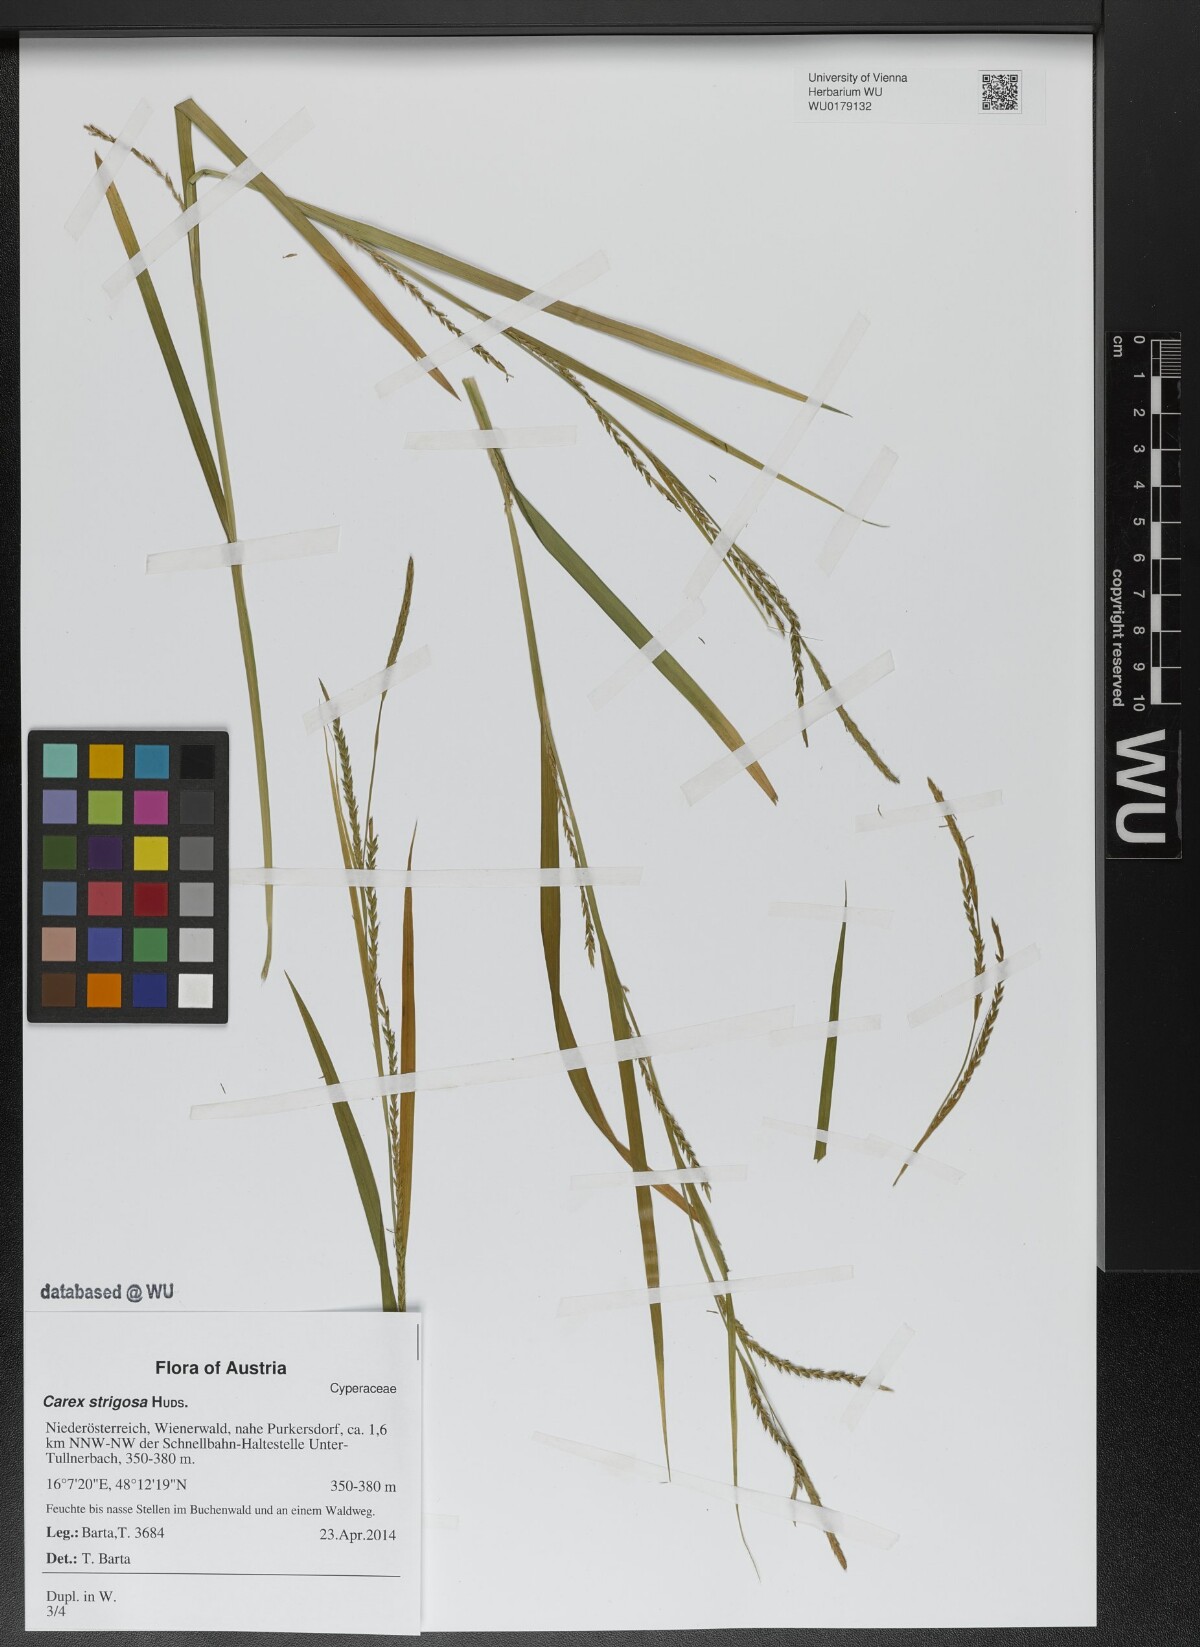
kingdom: Plantae
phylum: Tracheophyta
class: Liliopsida
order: Poales
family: Cyperaceae
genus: Carex
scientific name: Carex strigosa
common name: Thin-spiked wood-sedge
